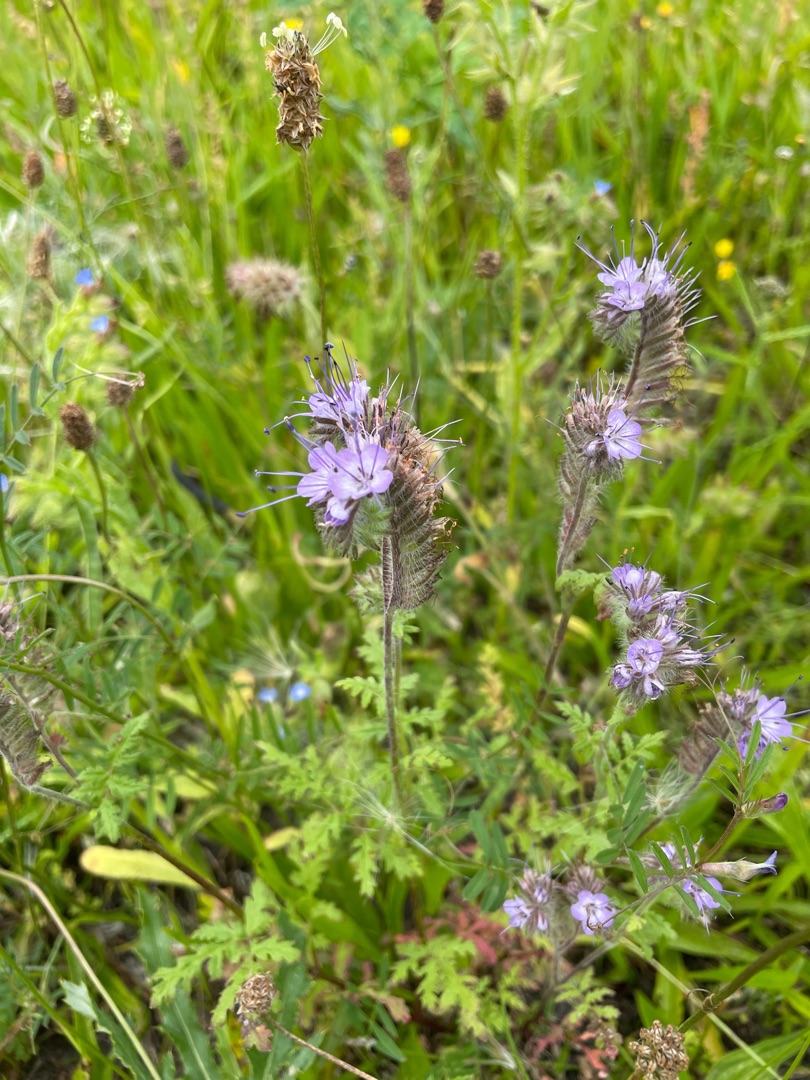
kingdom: Plantae
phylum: Tracheophyta
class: Magnoliopsida
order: Boraginales
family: Hydrophyllaceae
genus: Phacelia
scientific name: Phacelia tanacetifolia
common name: Honningurt
